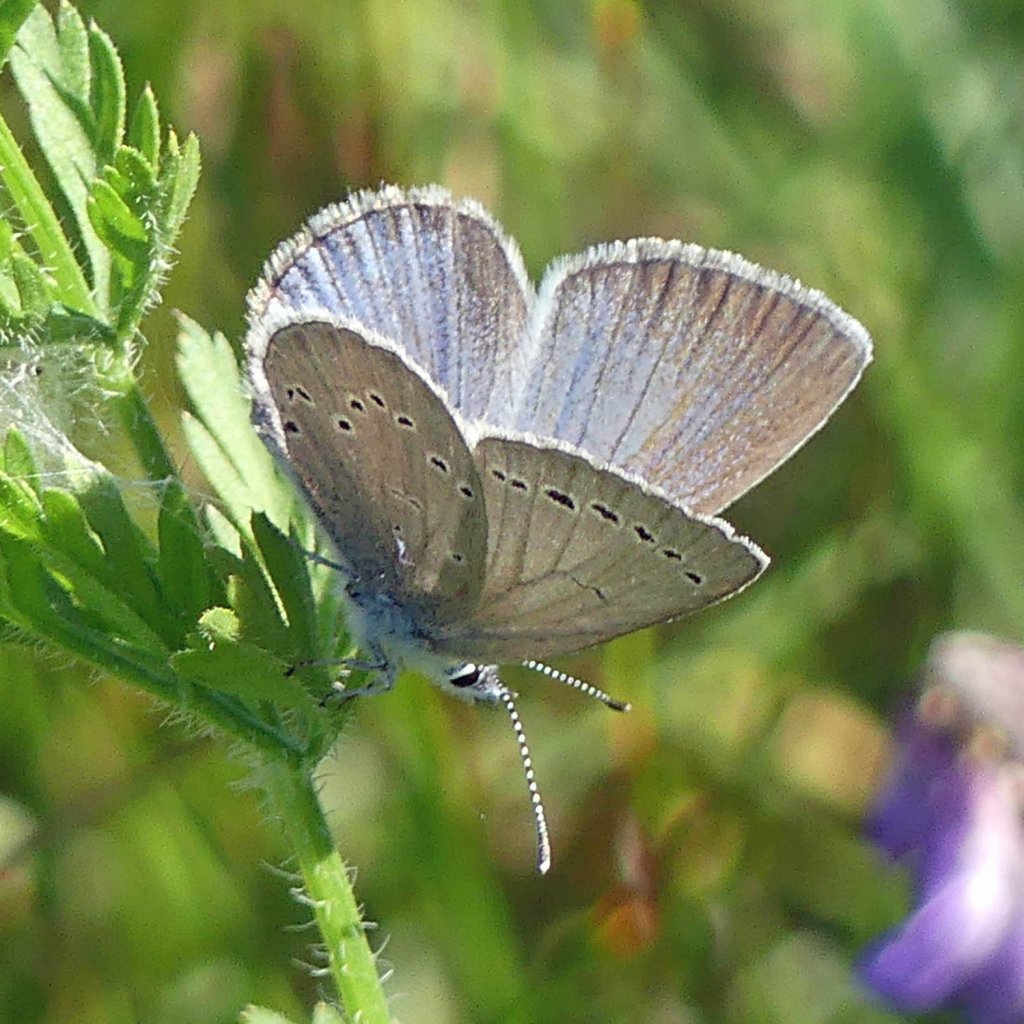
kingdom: Animalia
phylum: Arthropoda
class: Insecta
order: Lepidoptera
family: Lycaenidae
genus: Glaucopsyche
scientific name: Glaucopsyche lygdamus
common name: Silvery Blue
